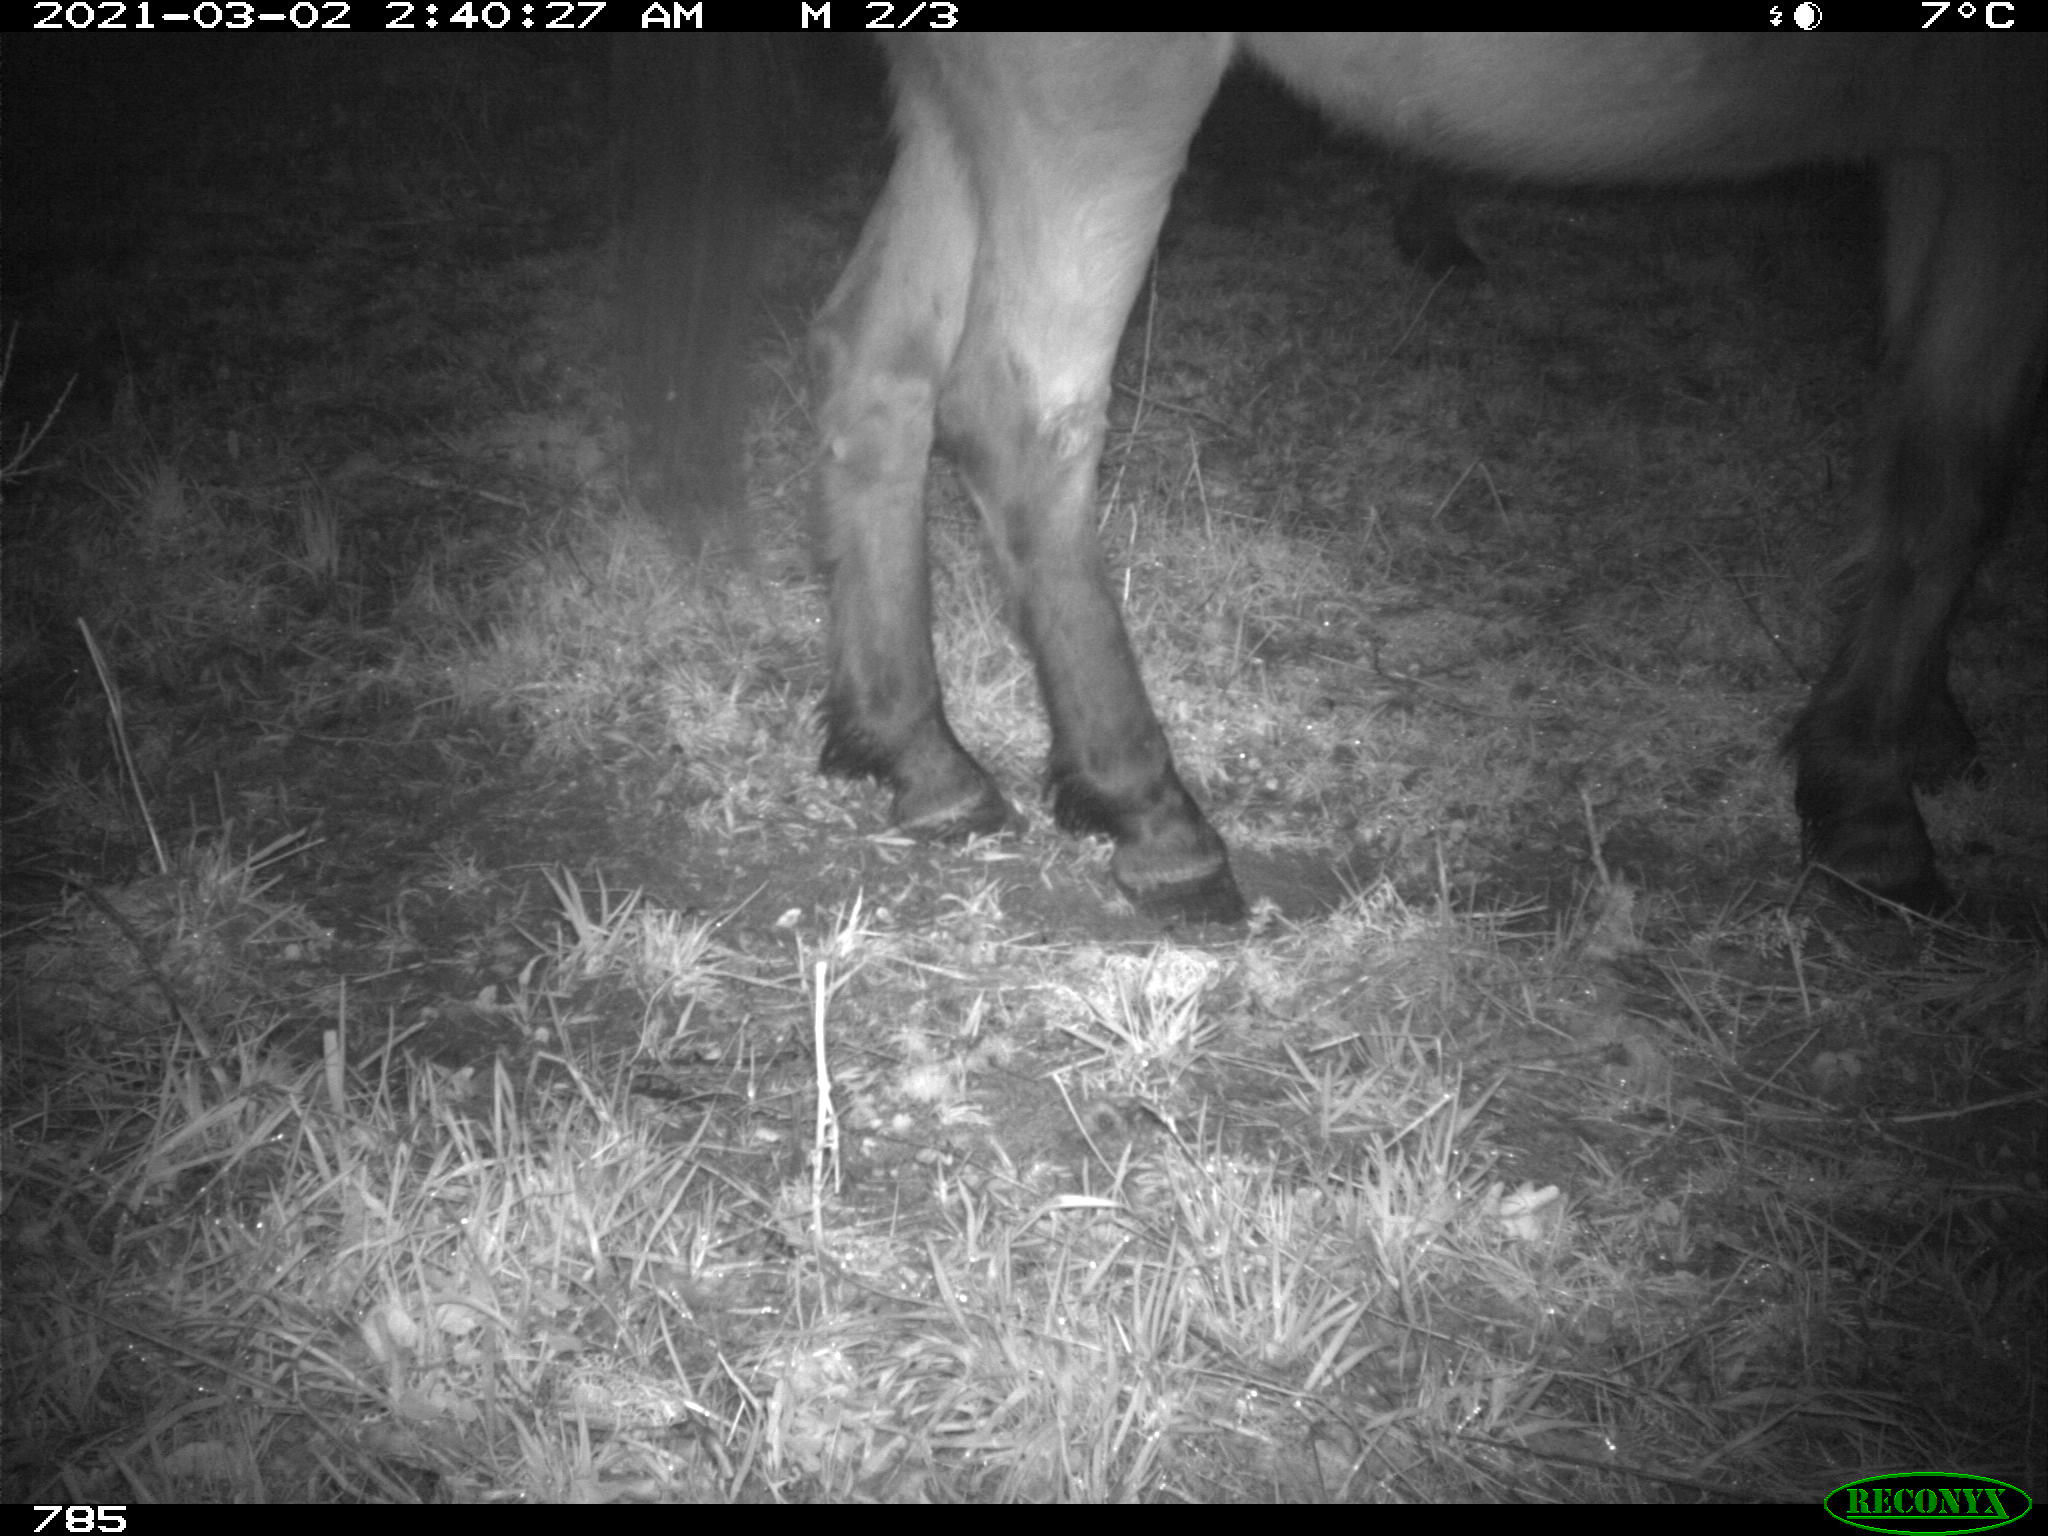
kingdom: Animalia
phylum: Chordata
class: Mammalia
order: Perissodactyla
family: Equidae
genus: Equus
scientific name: Equus caballus
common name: Horse
